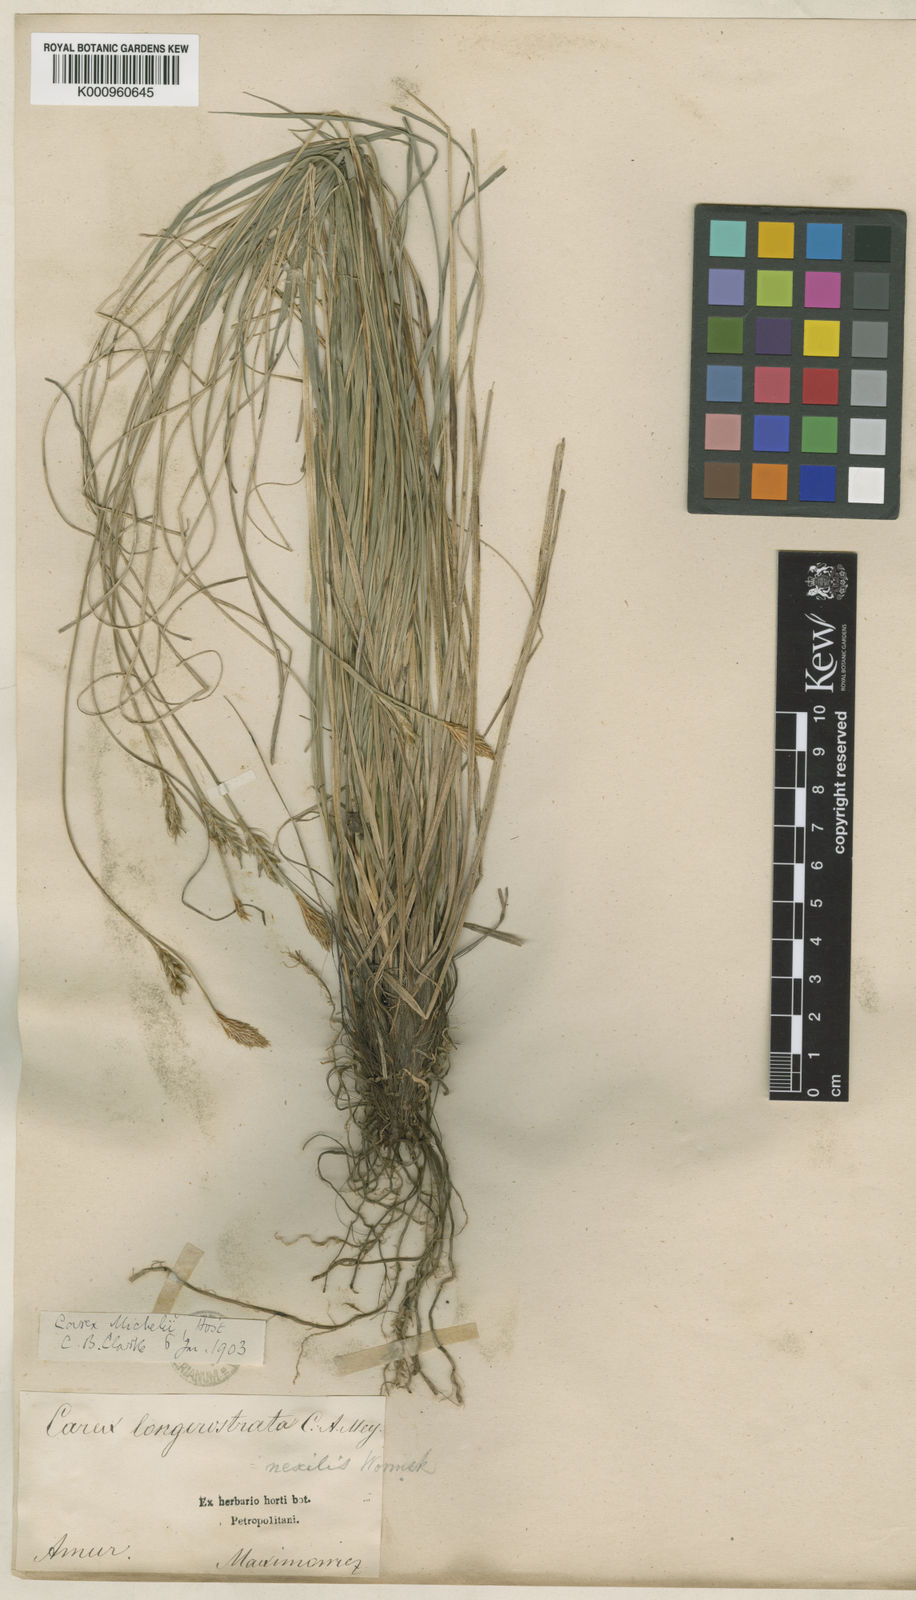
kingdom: Plantae
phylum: Tracheophyta
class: Liliopsida
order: Poales
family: Cyperaceae
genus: Carex
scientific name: Carex longerostrata
